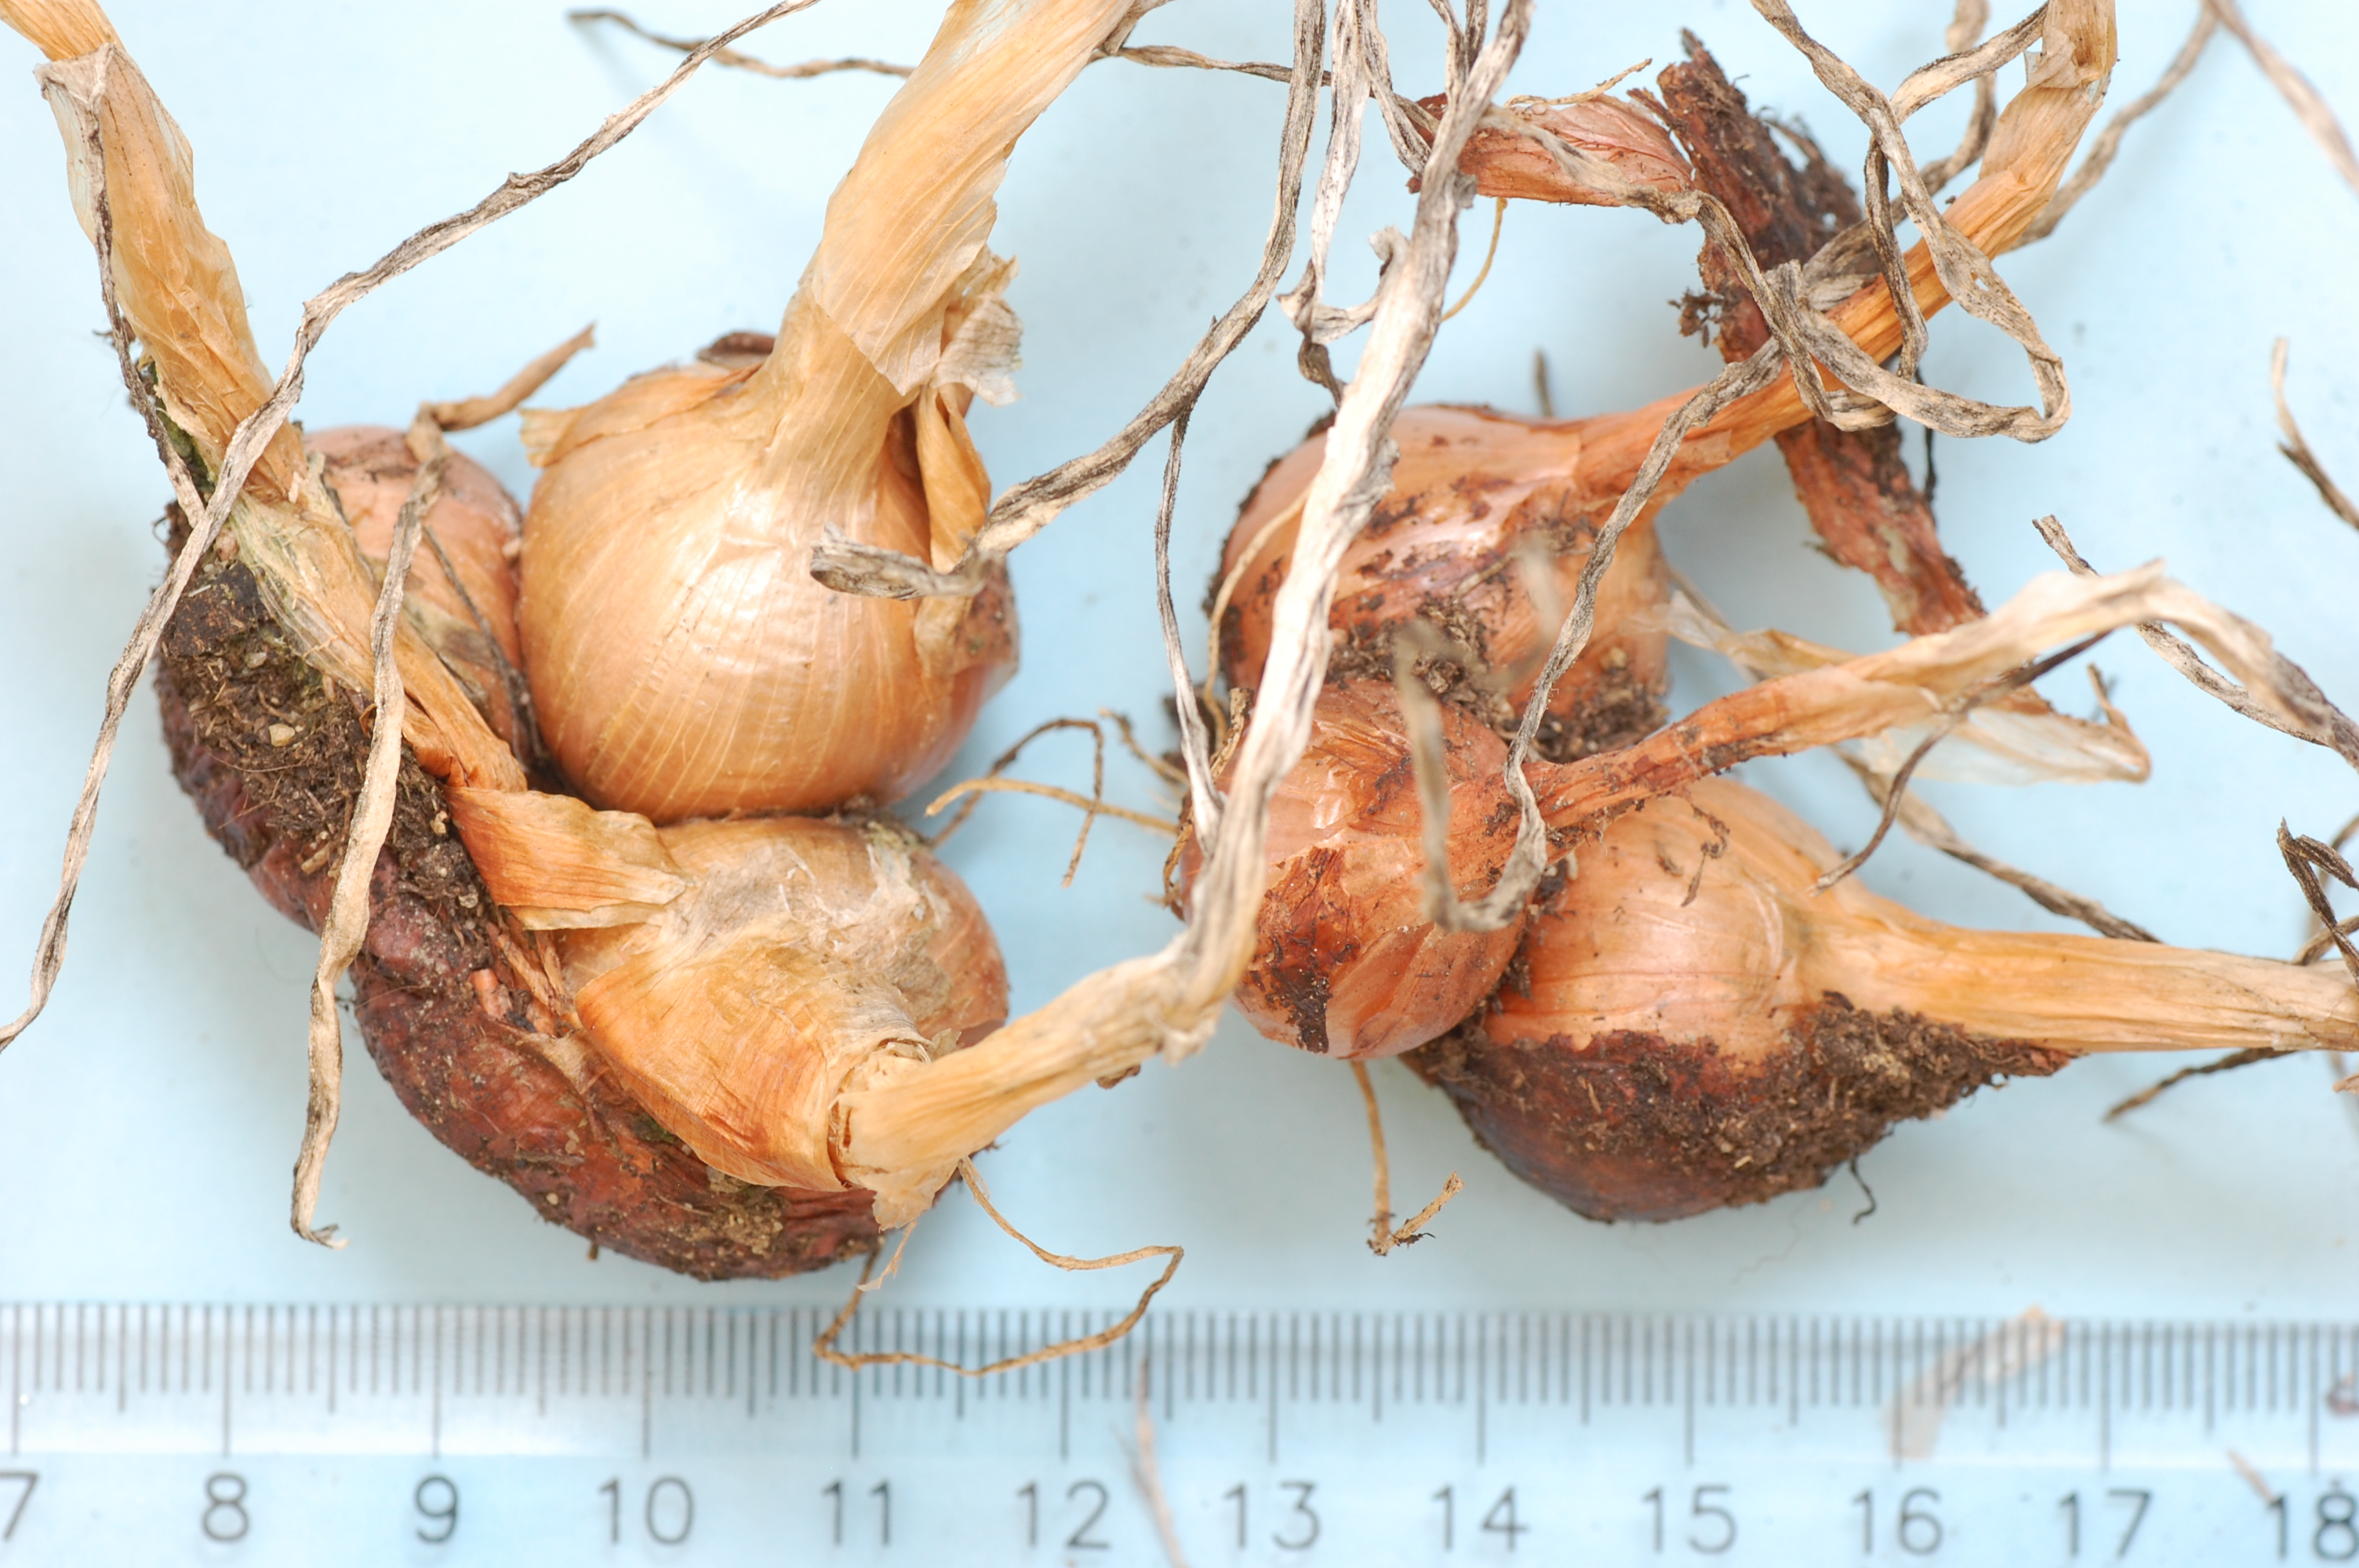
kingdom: Plantae
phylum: Tracheophyta
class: Liliopsida
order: Asparagales
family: Amaryllidaceae
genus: Allium
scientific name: Allium cepa
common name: Onion
